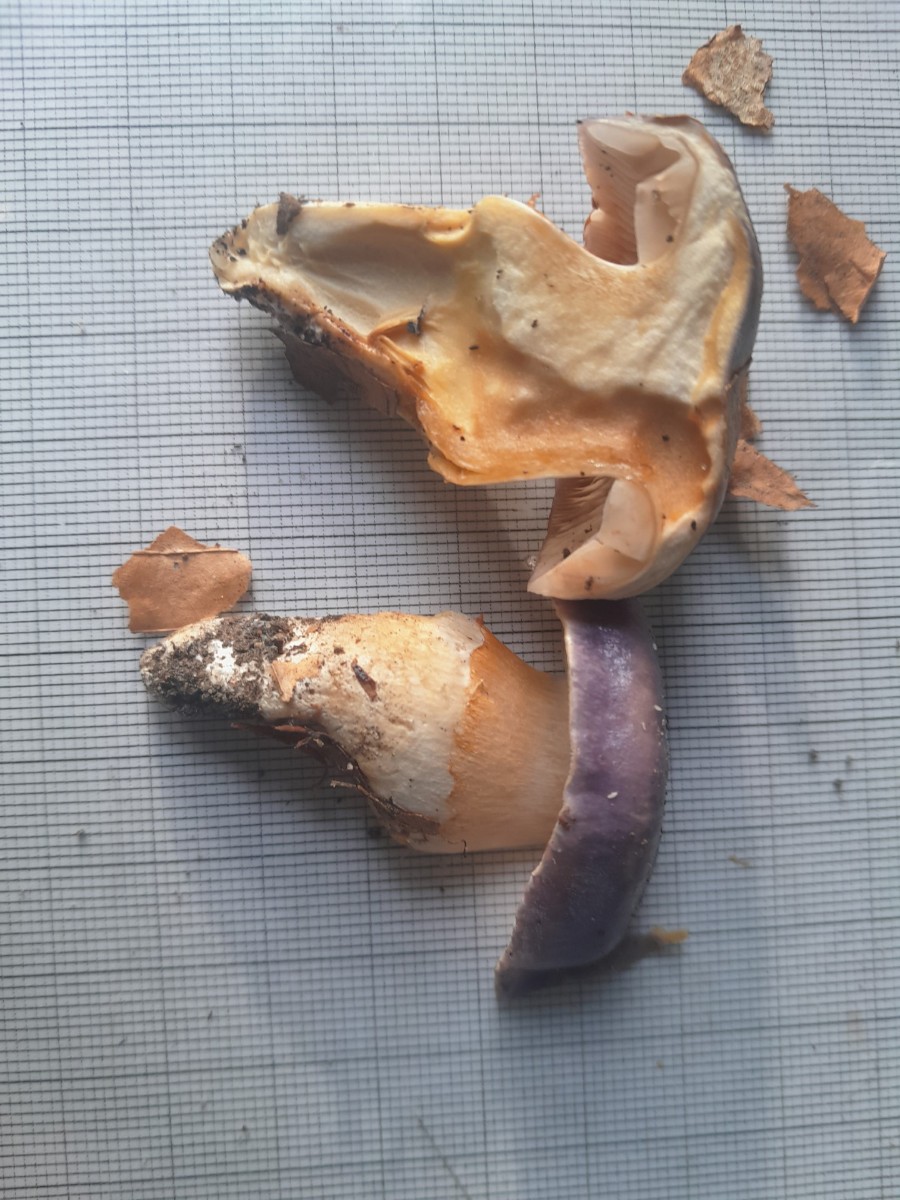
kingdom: Fungi
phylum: Basidiomycota
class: Agaricomycetes
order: Agaricales
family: Cortinariaceae
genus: Thaxterogaster
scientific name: Thaxterogaster croceocoeruleus
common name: blågullig slørhat
